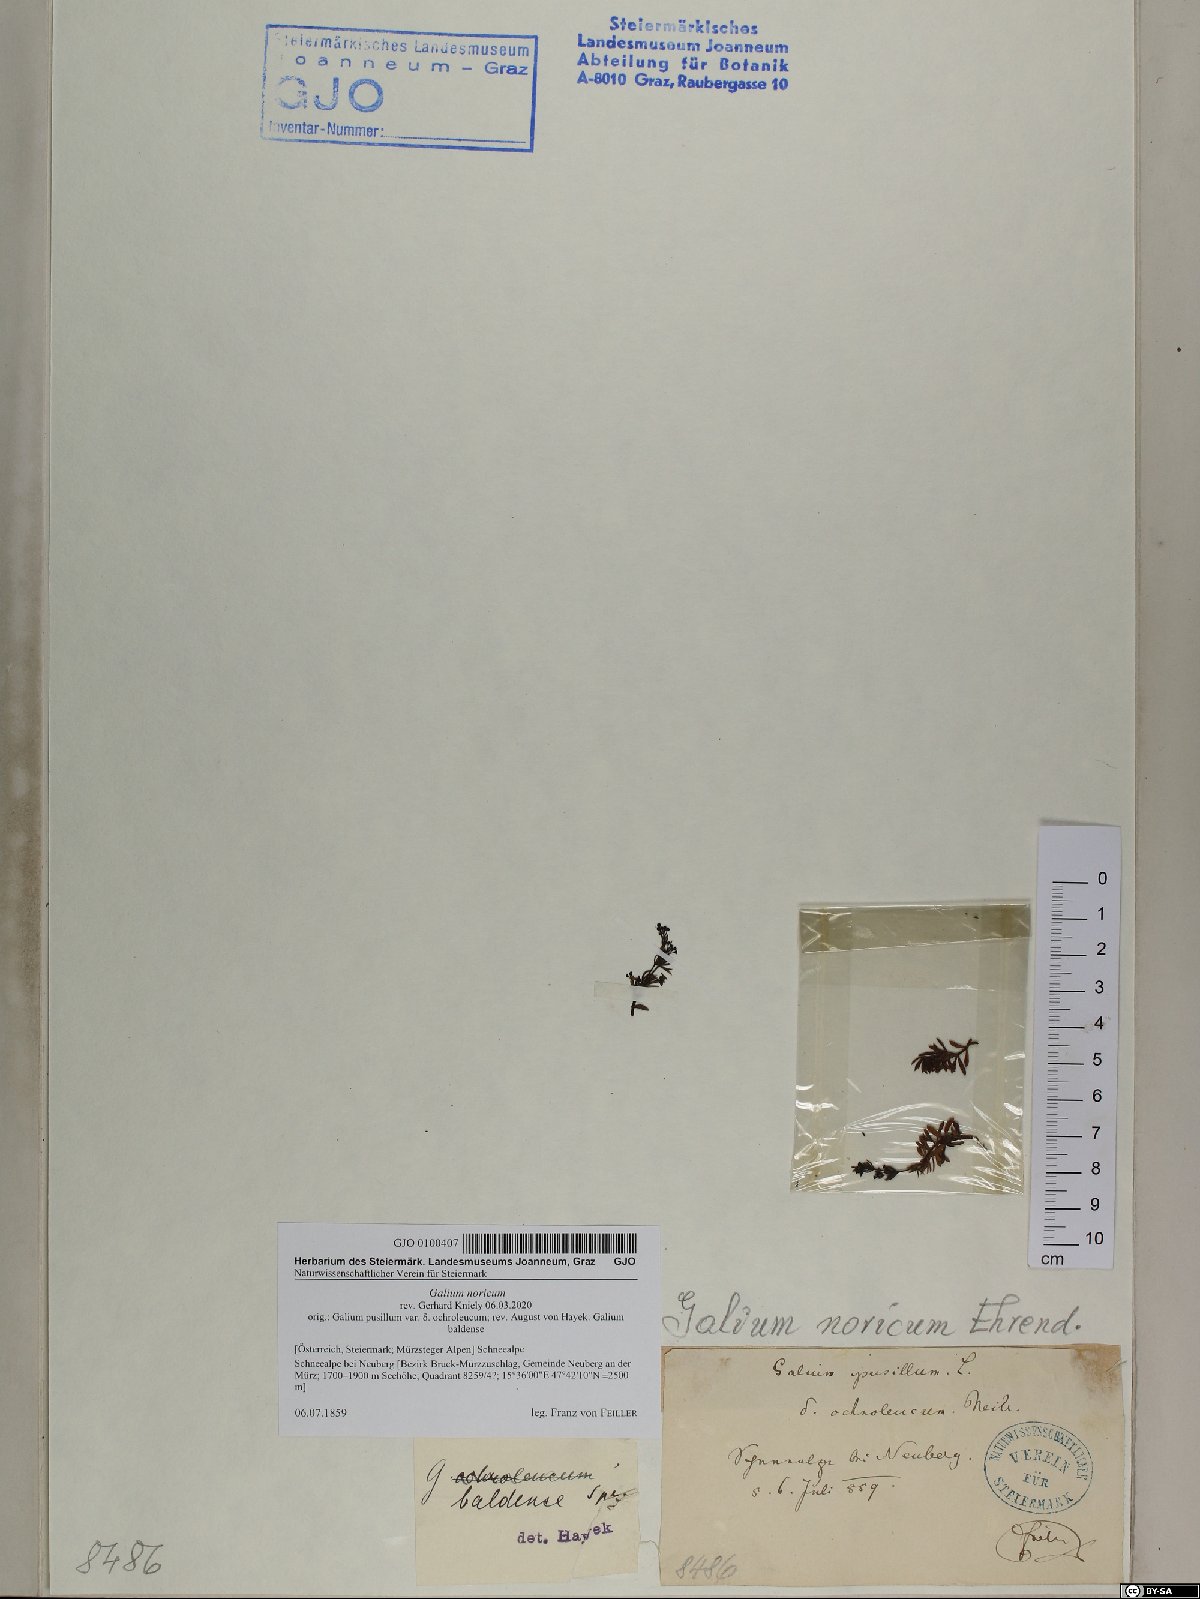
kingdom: Plantae
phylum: Tracheophyta
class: Magnoliopsida
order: Gentianales
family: Rubiaceae
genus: Galium
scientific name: Galium noricum
